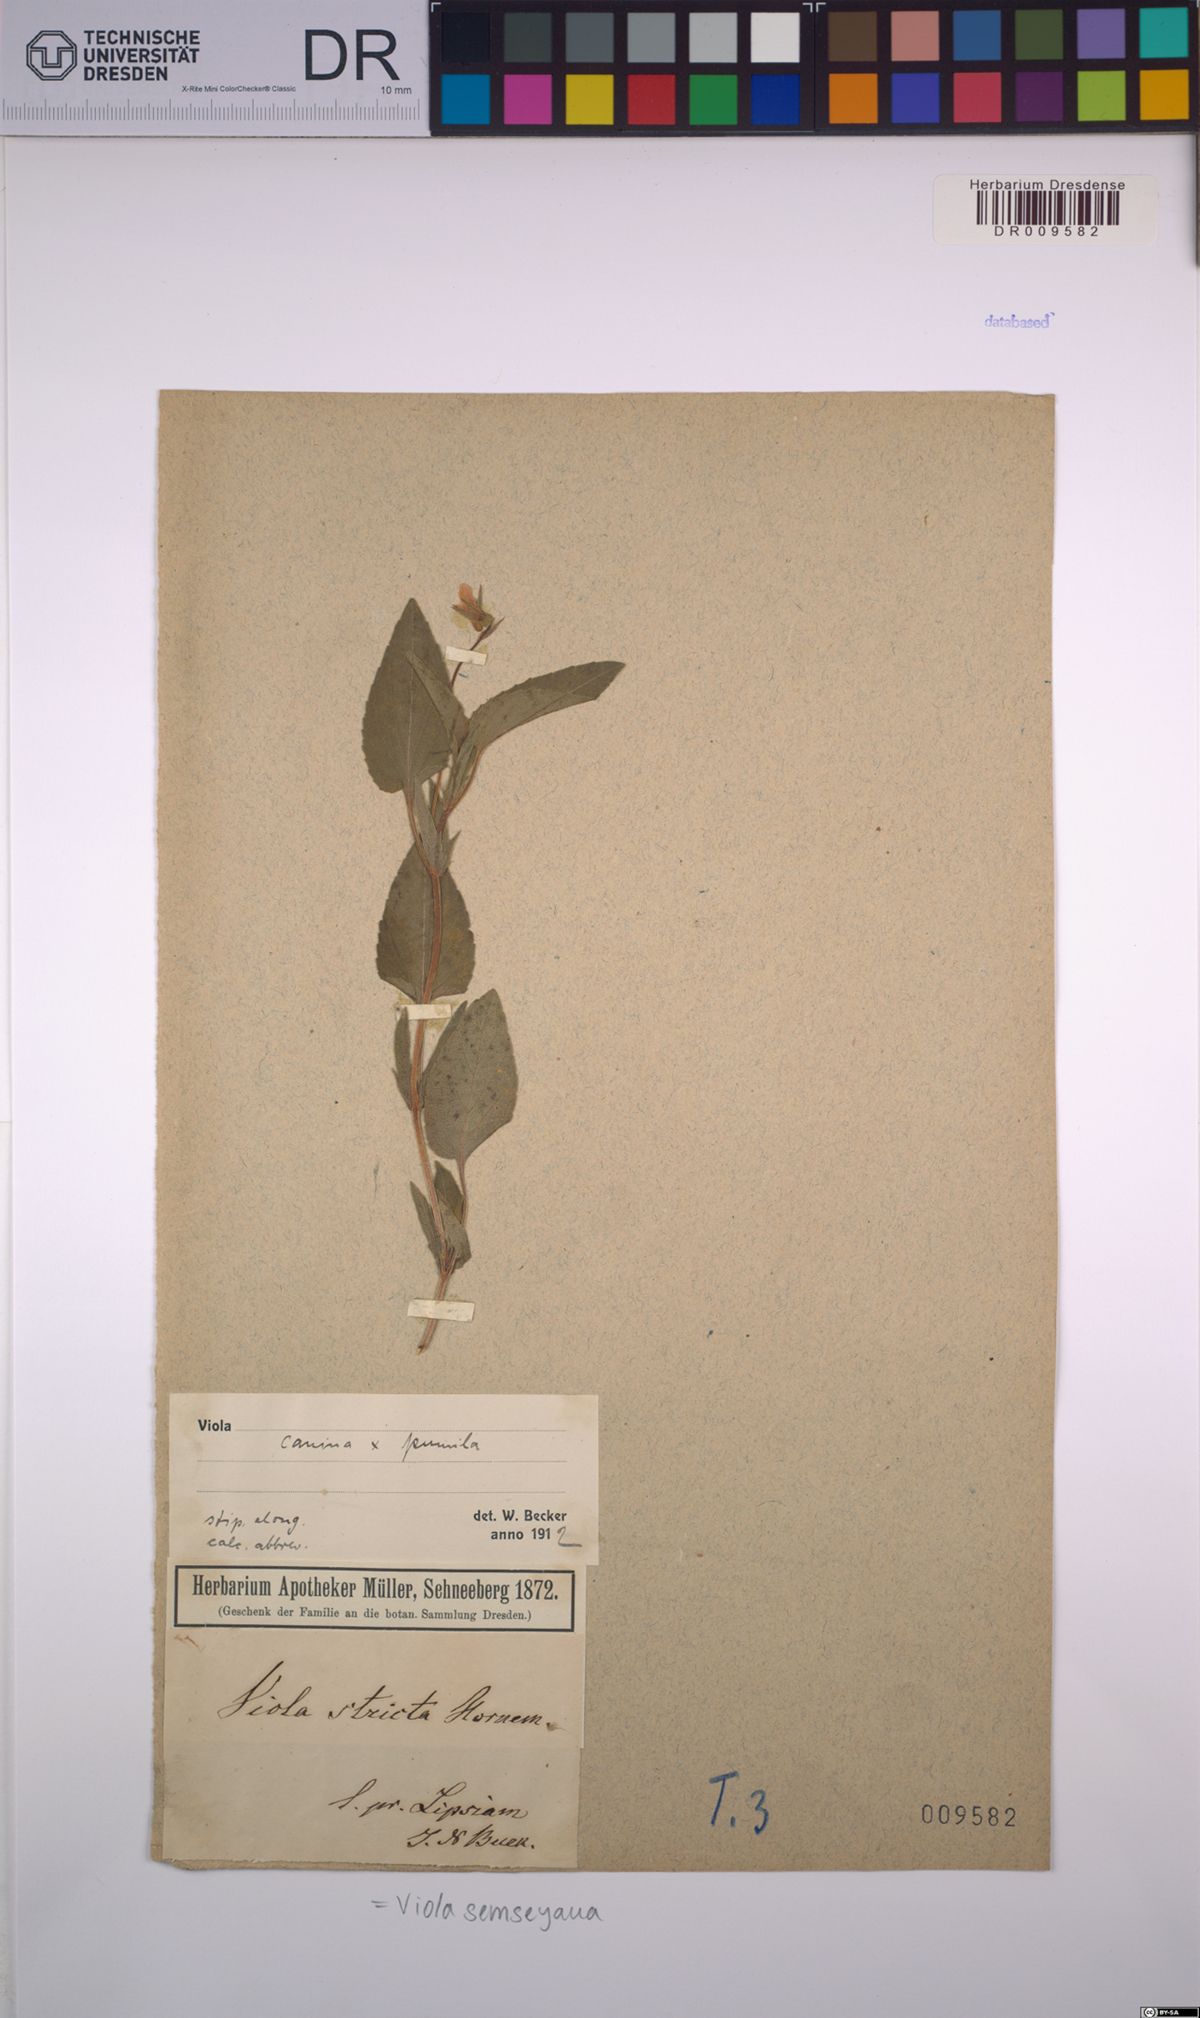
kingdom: Plantae
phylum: Tracheophyta
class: Magnoliopsida
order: Malpighiales
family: Violaceae
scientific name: Violaceae
